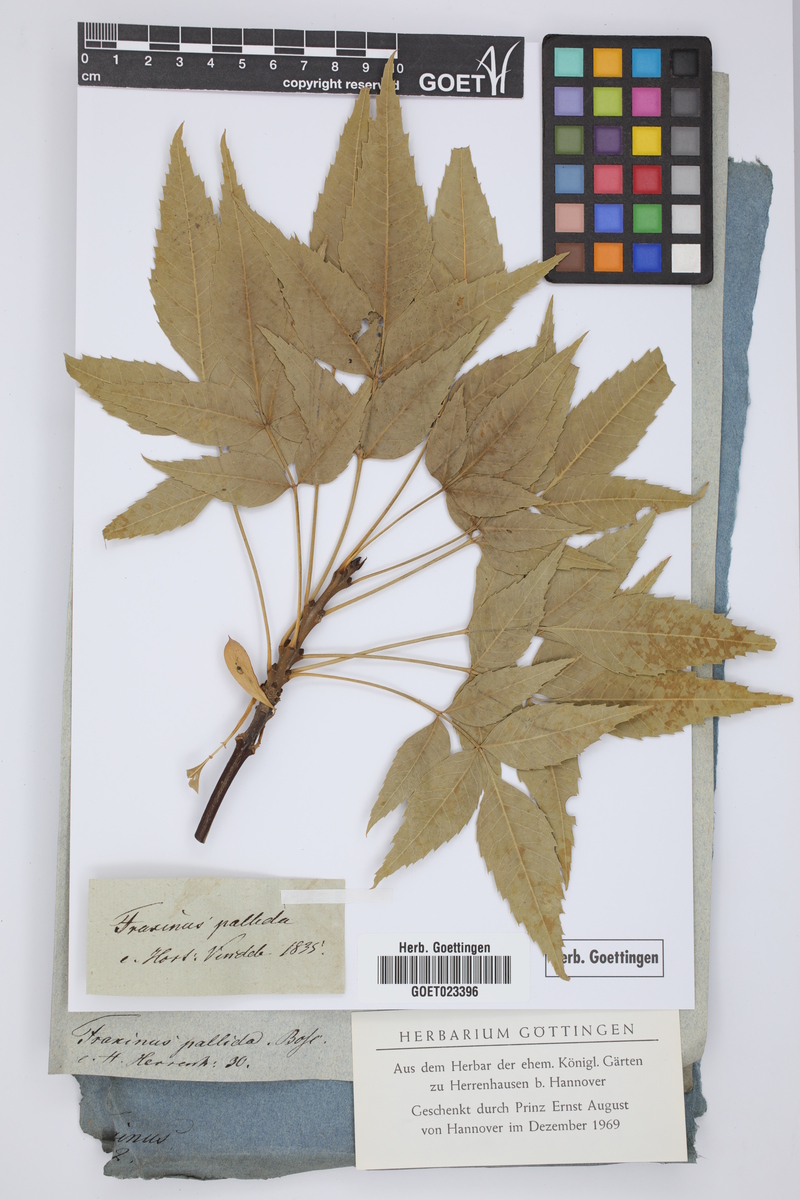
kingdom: Plantae
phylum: Tracheophyta
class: Magnoliopsida
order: Lamiales
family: Oleaceae
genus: Fraxinus
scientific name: Fraxinus caroliniana
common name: Carolina ash
